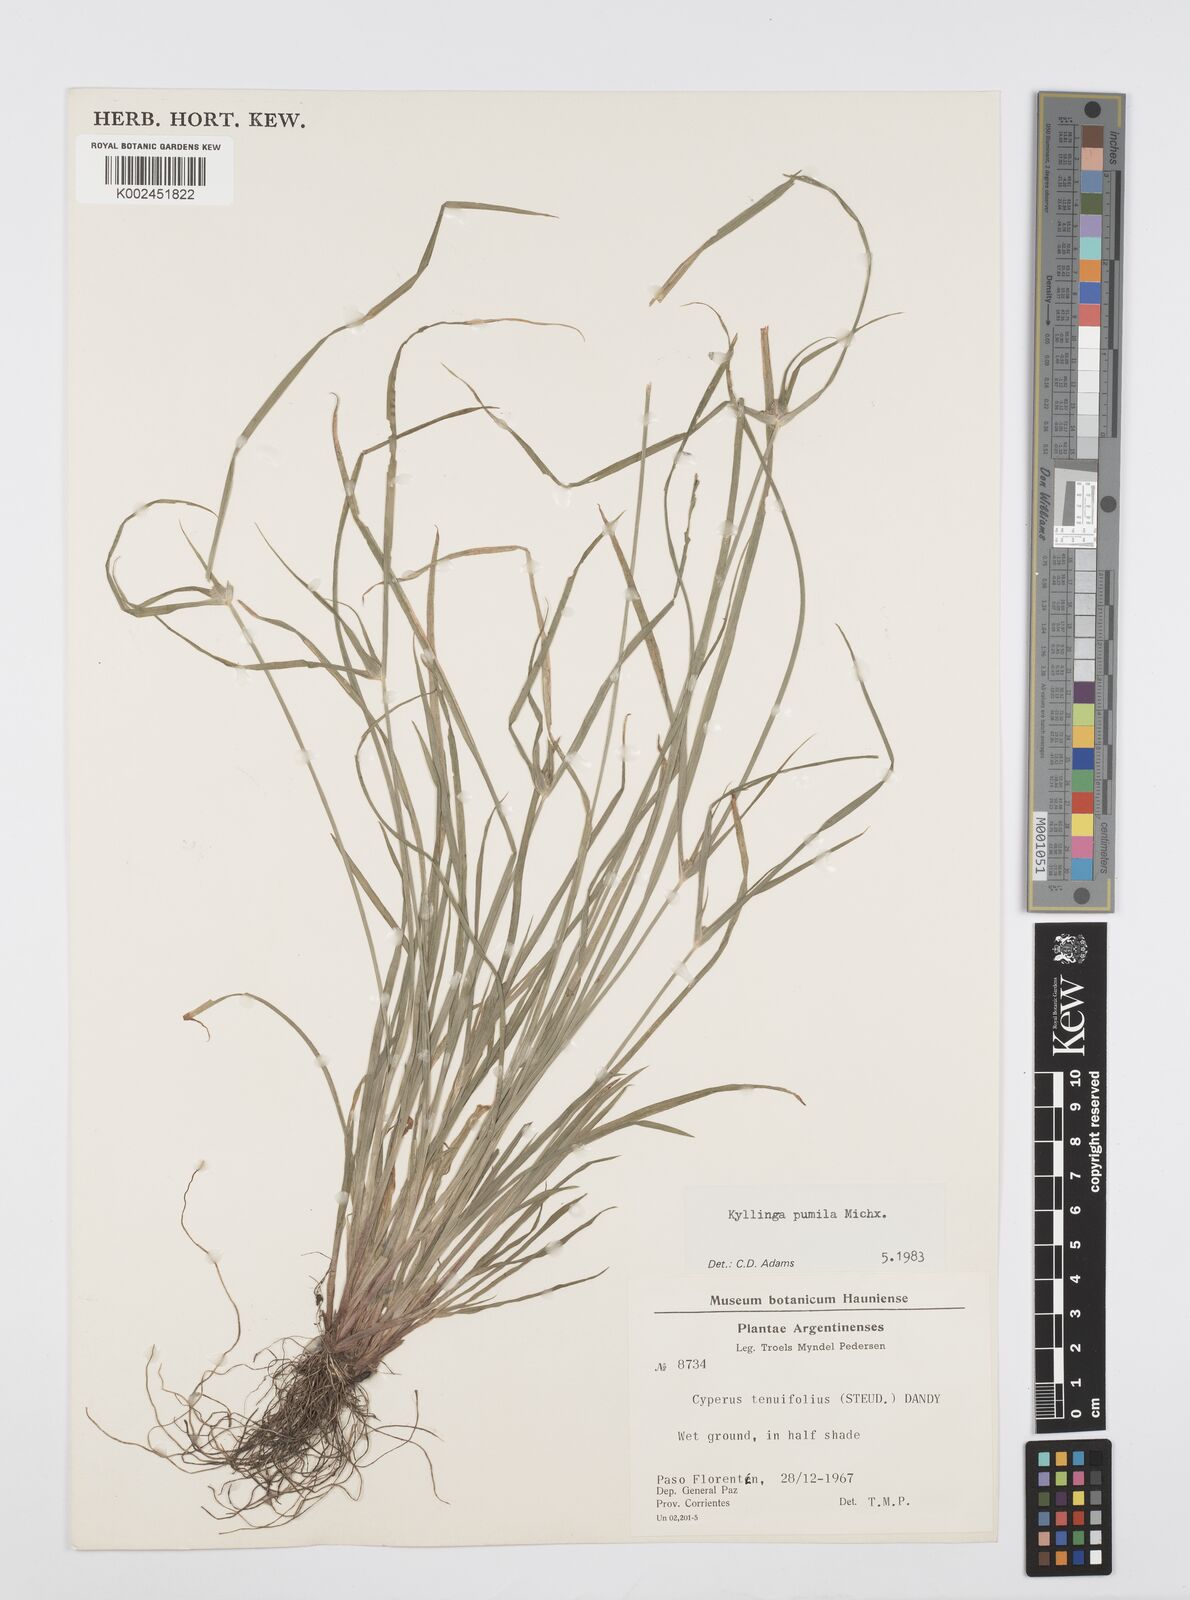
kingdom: Plantae
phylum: Tracheophyta
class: Liliopsida
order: Poales
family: Cyperaceae
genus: Cyperus
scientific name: Cyperus pumilus
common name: Low flatsedge
